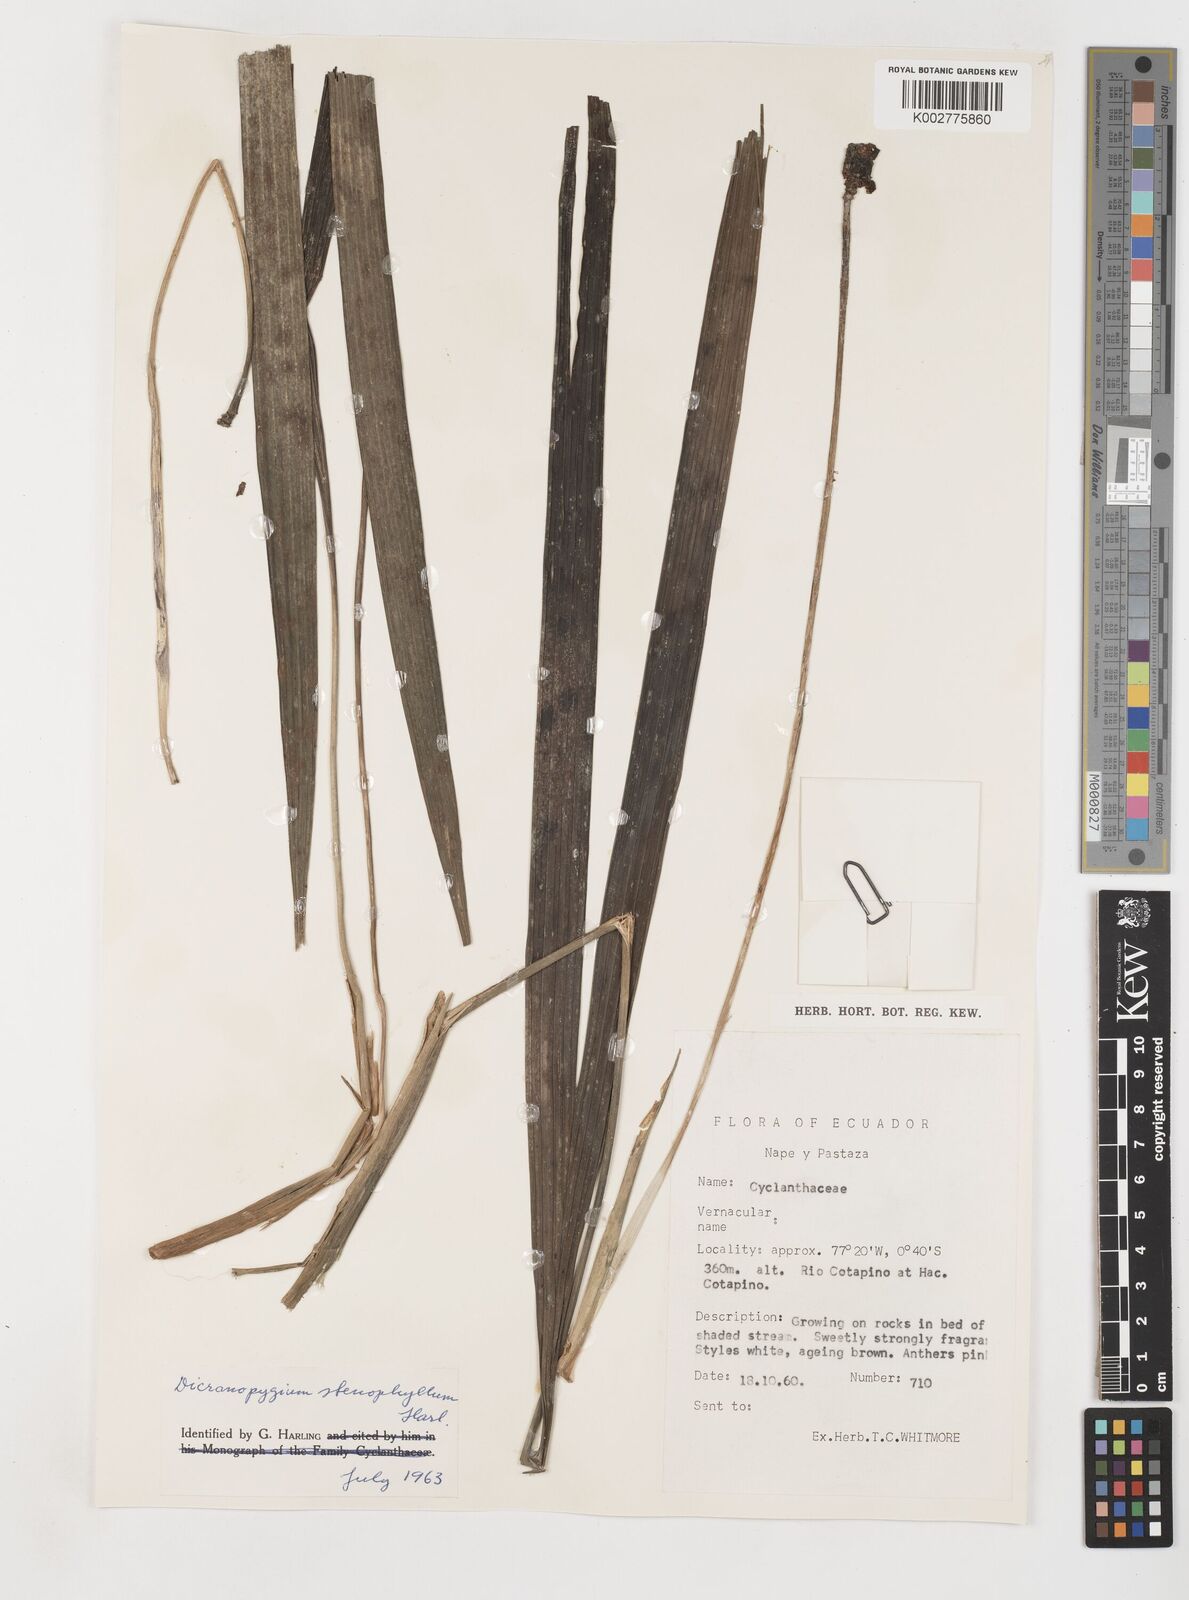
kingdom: Plantae
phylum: Tracheophyta
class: Liliopsida
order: Pandanales
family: Cyclanthaceae
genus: Dicranopygium
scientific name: Dicranopygium stenophyllum
